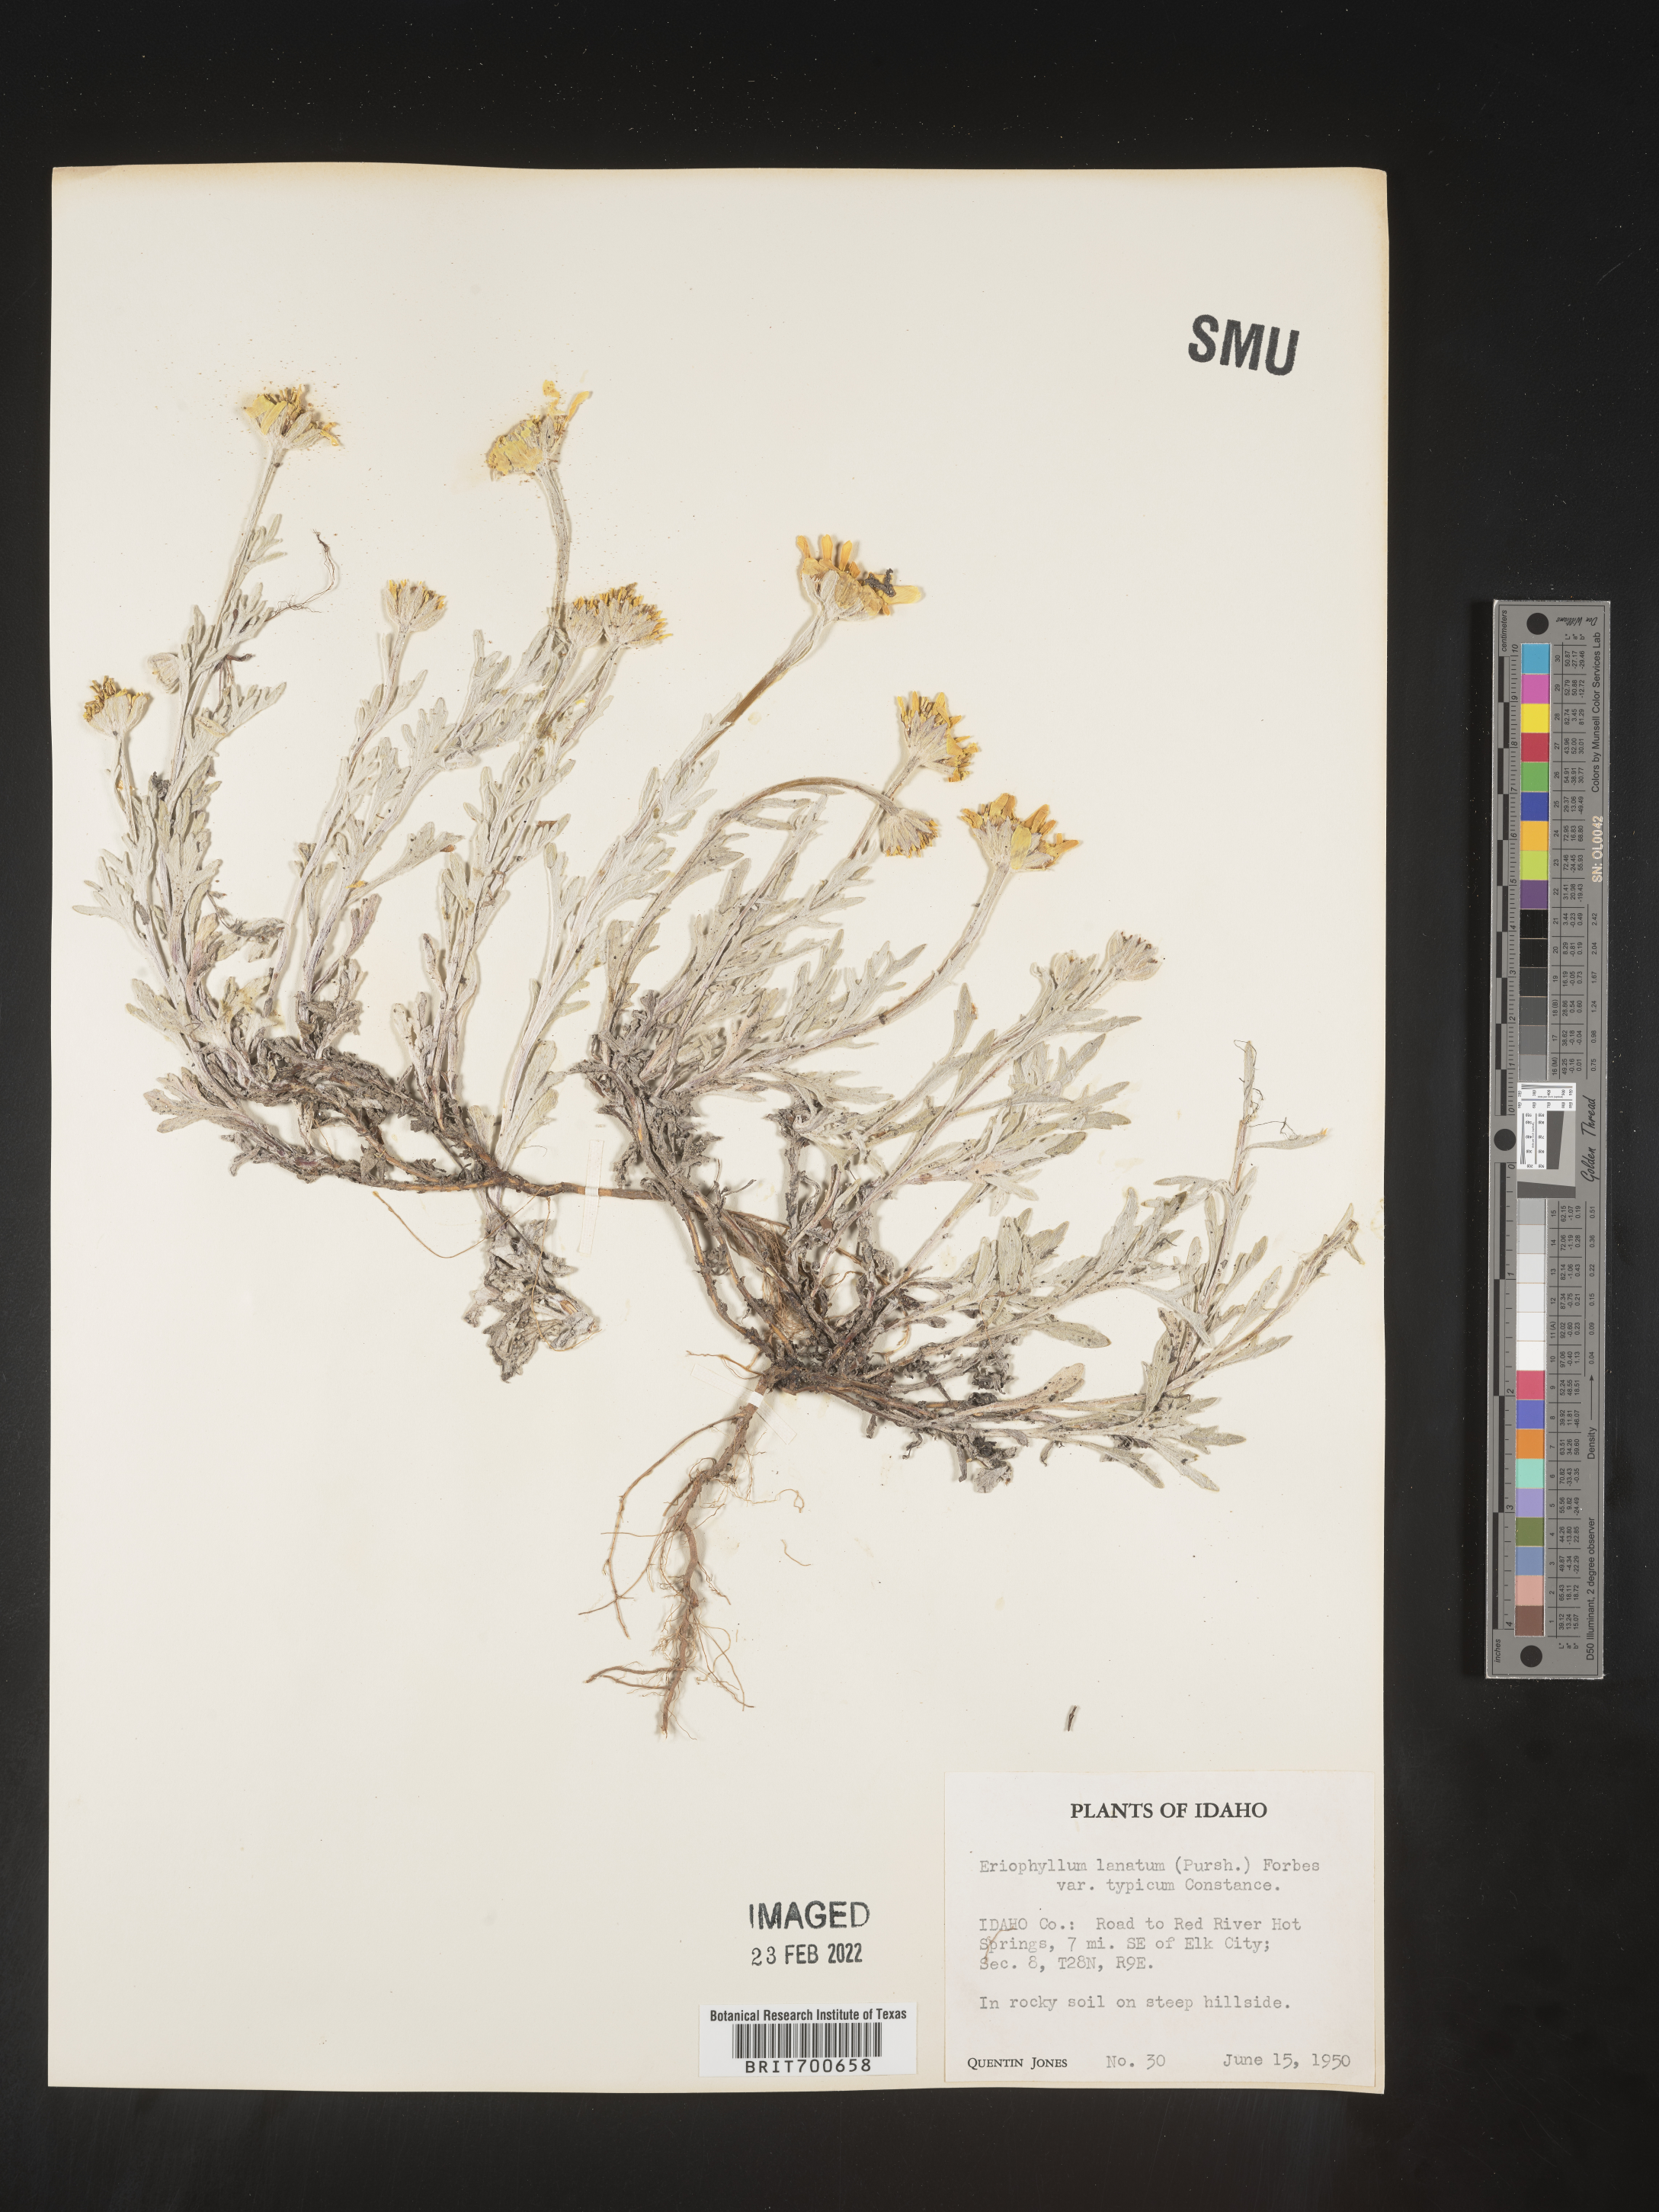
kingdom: Plantae
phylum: Tracheophyta
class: Magnoliopsida
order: Asterales
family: Asteraceae
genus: Eriophyllum
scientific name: Eriophyllum lanatum
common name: Common woolly-sunflower
